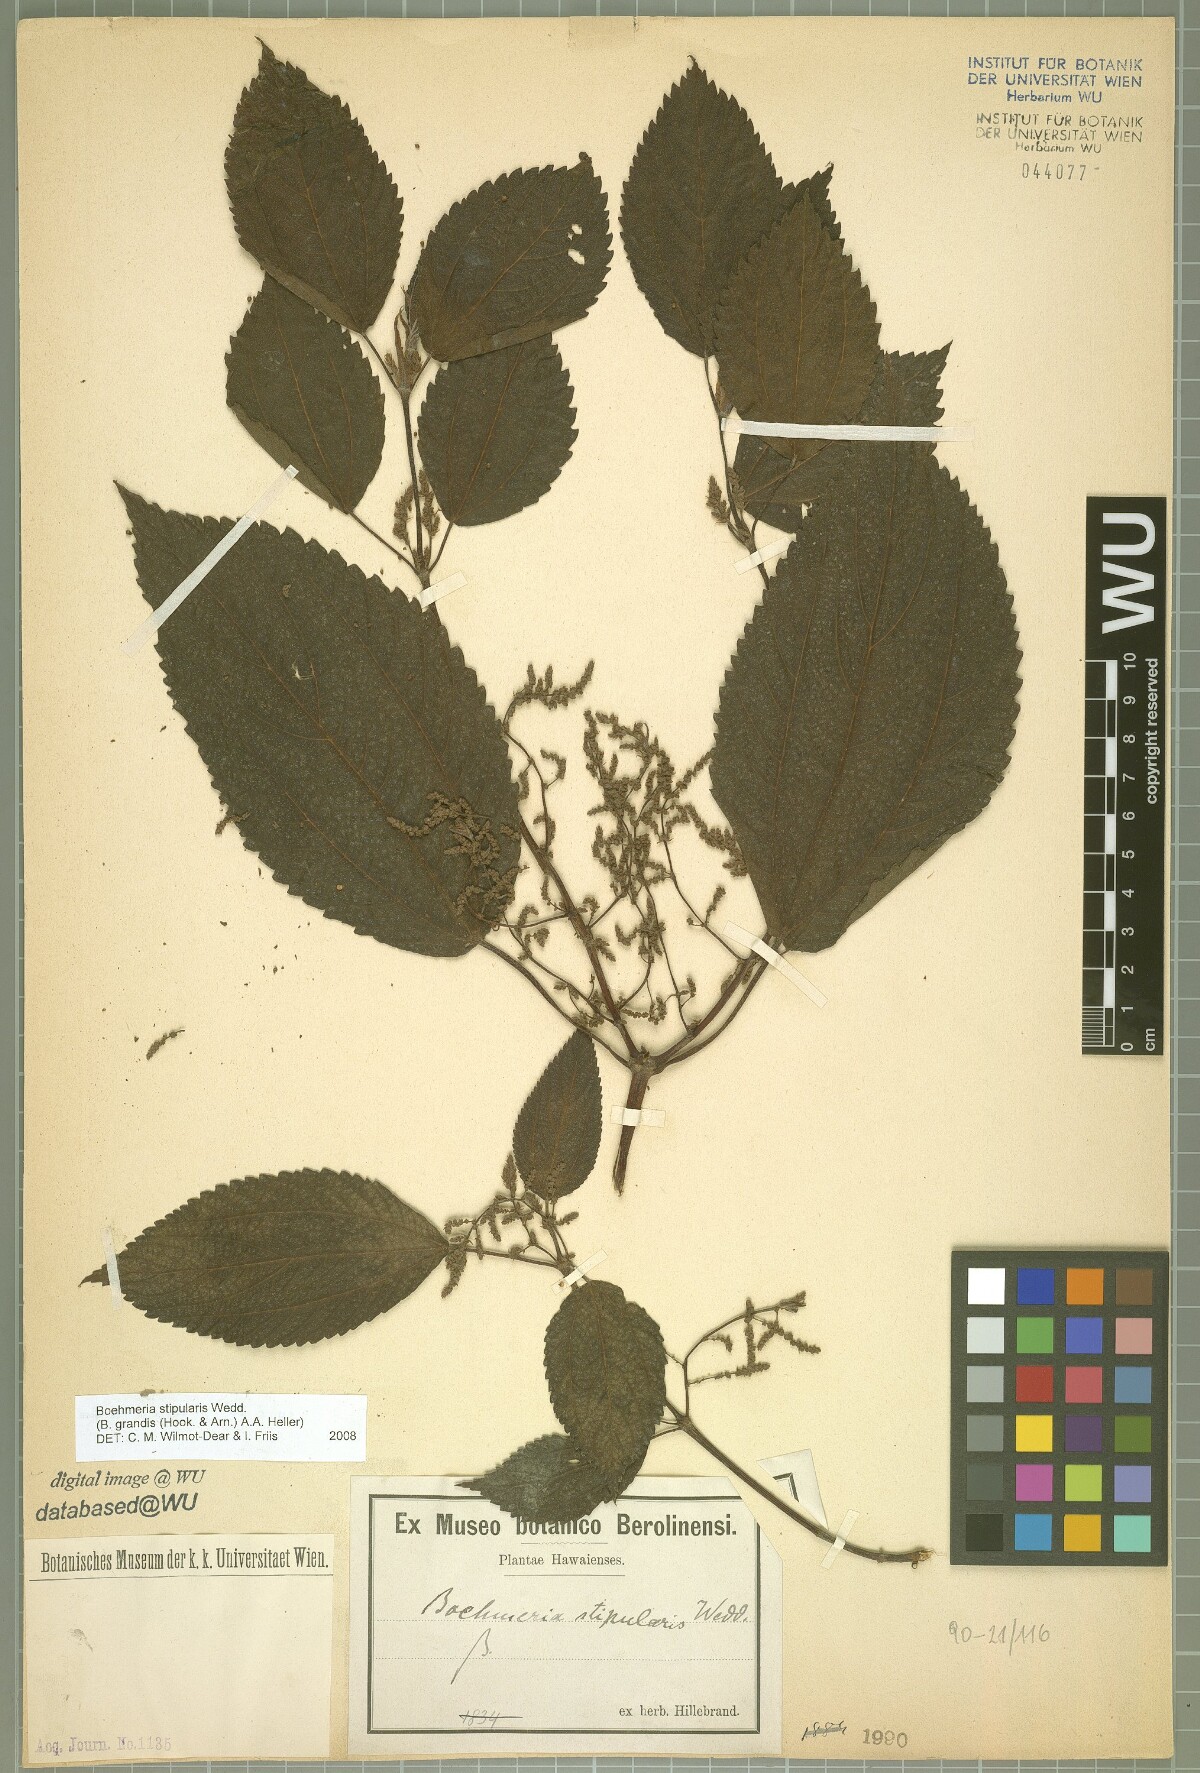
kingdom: Plantae
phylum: Tracheophyta
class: Magnoliopsida
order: Rosales
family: Urticaceae
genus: Boehmeria
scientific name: Boehmeria grandis
